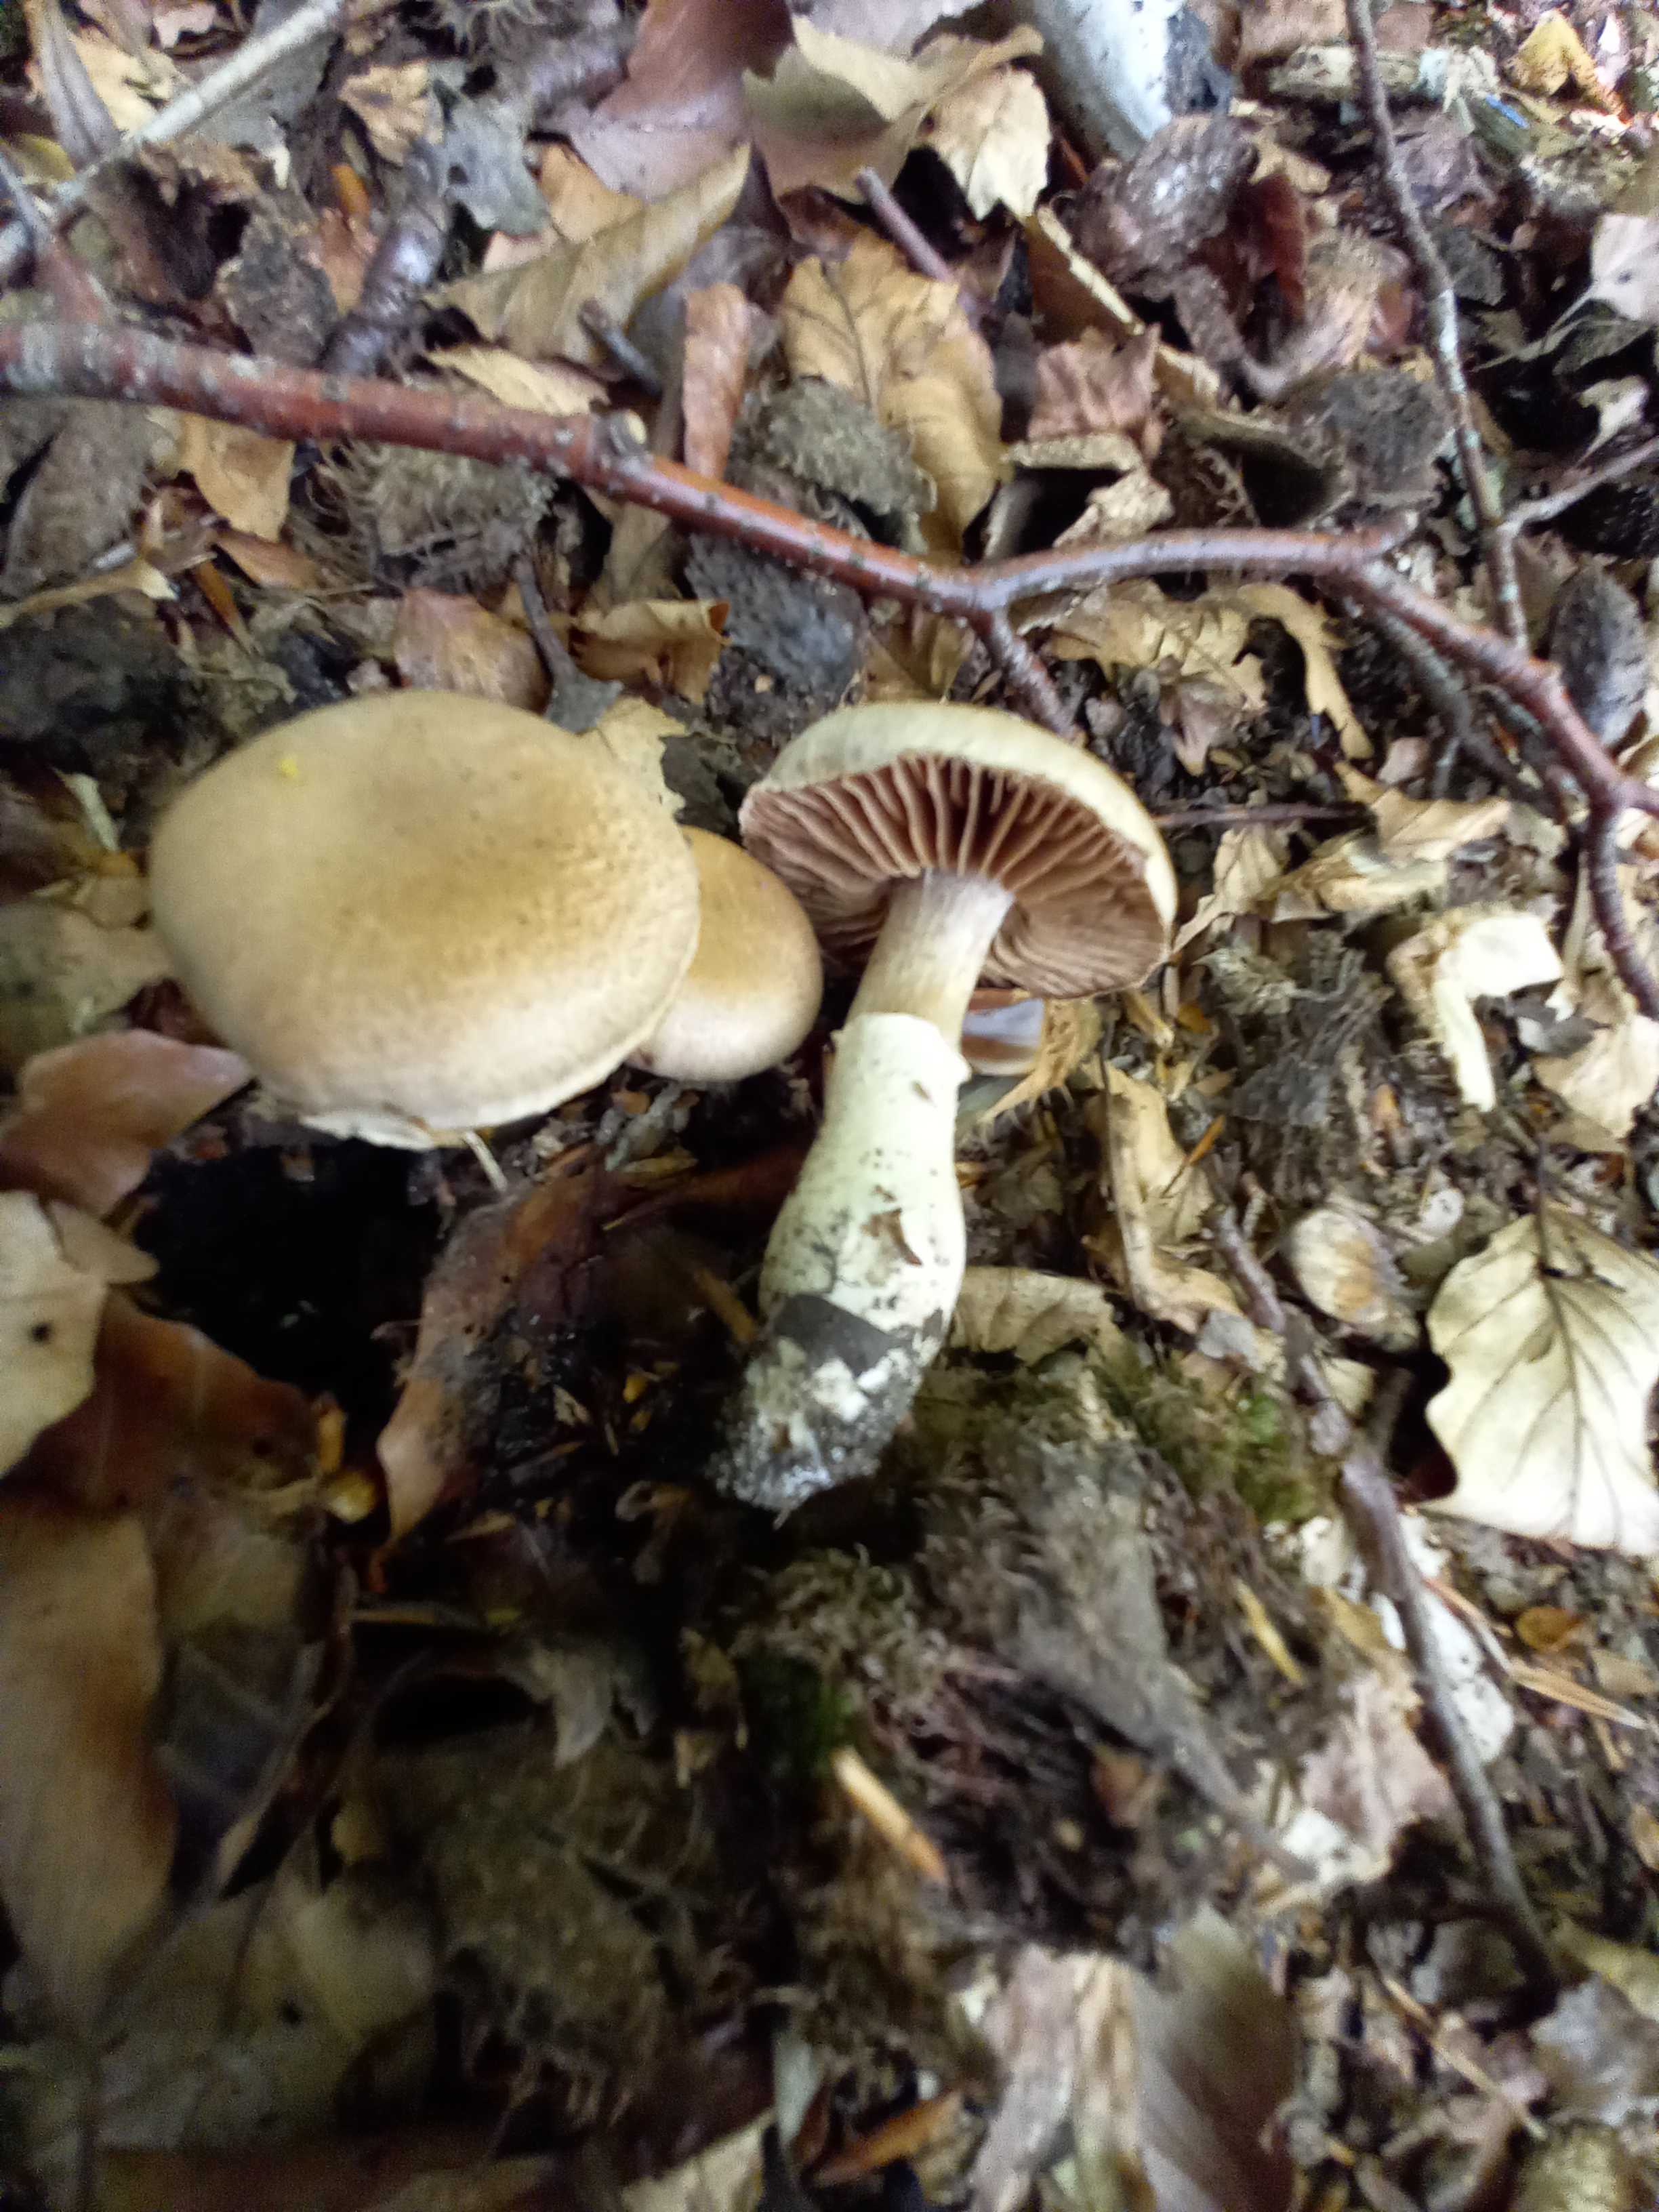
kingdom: Fungi
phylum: Basidiomycota
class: Agaricomycetes
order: Agaricales
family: Cortinariaceae
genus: Cortinarius
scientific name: Cortinarius torvus
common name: champignonagtig slørhat
